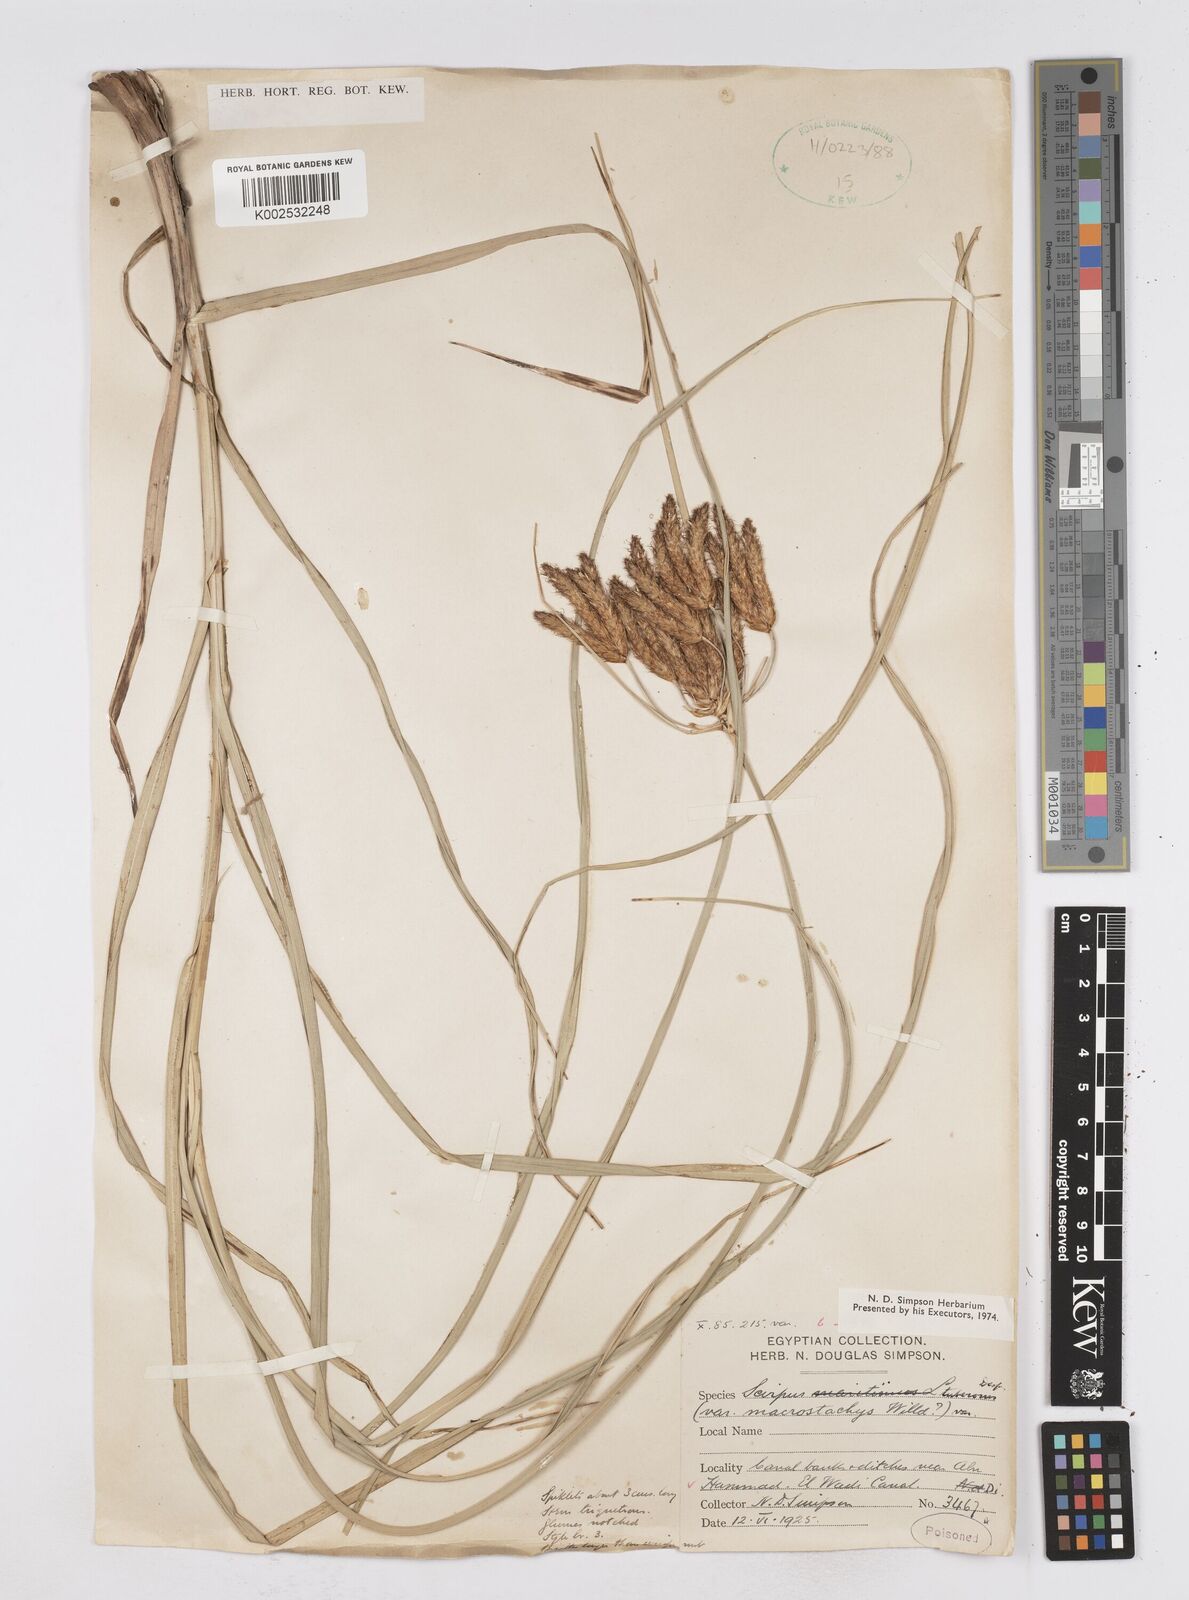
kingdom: Plantae
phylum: Tracheophyta
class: Liliopsida
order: Poales
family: Cyperaceae
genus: Bolboschoenus
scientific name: Bolboschoenus maritimus
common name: Sea club-rush
